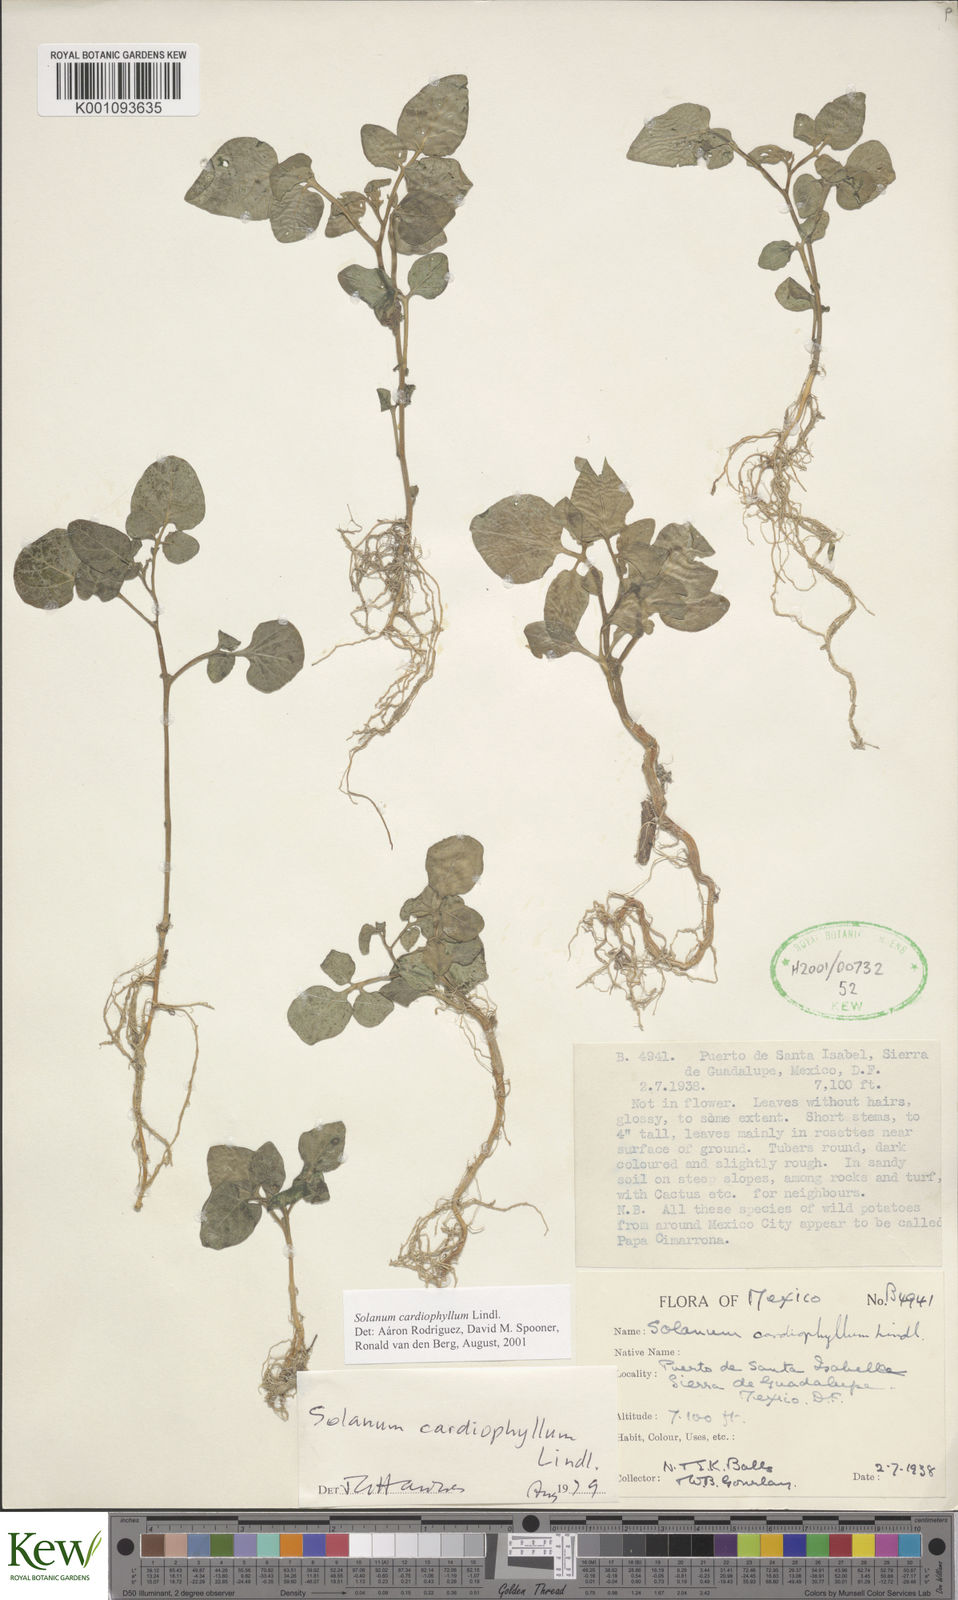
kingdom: Plantae
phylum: Tracheophyta
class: Magnoliopsida
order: Solanales
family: Solanaceae
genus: Solanum
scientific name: Solanum cardiophyllum
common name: Heartleaf horsenettle
